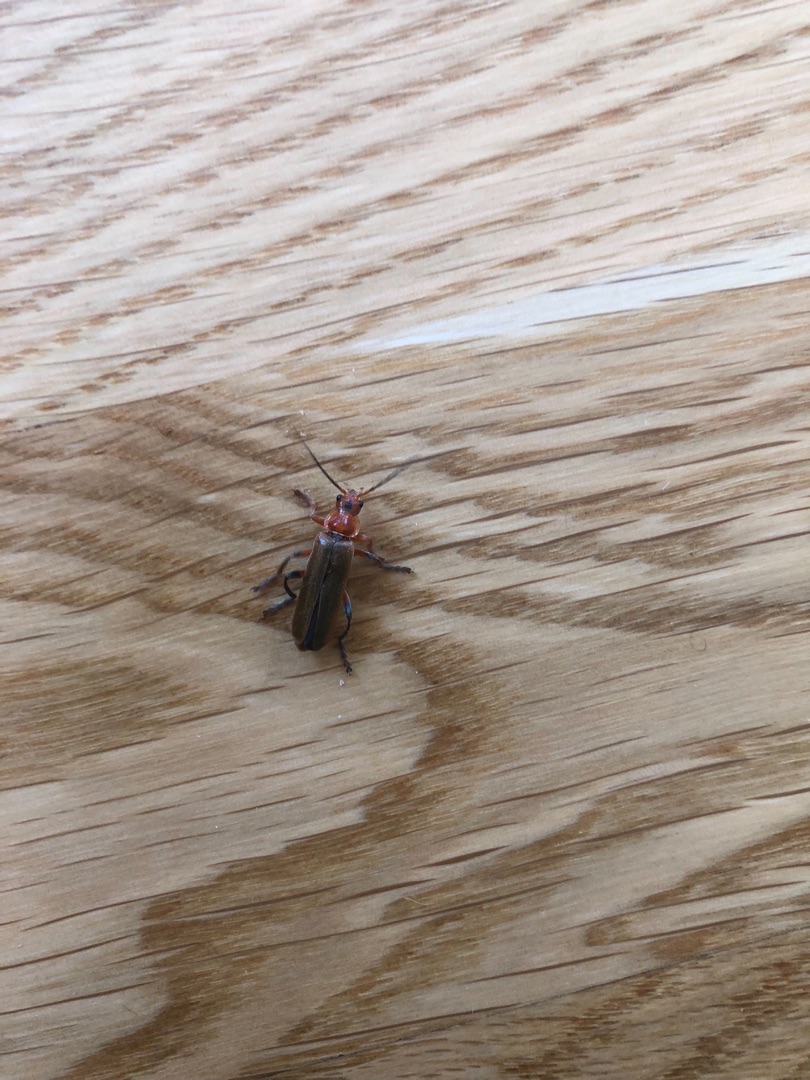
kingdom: Animalia
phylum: Arthropoda
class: Insecta
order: Coleoptera
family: Cantharidae
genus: Cantharis
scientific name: Cantharis livida
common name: Gul blødvinge
